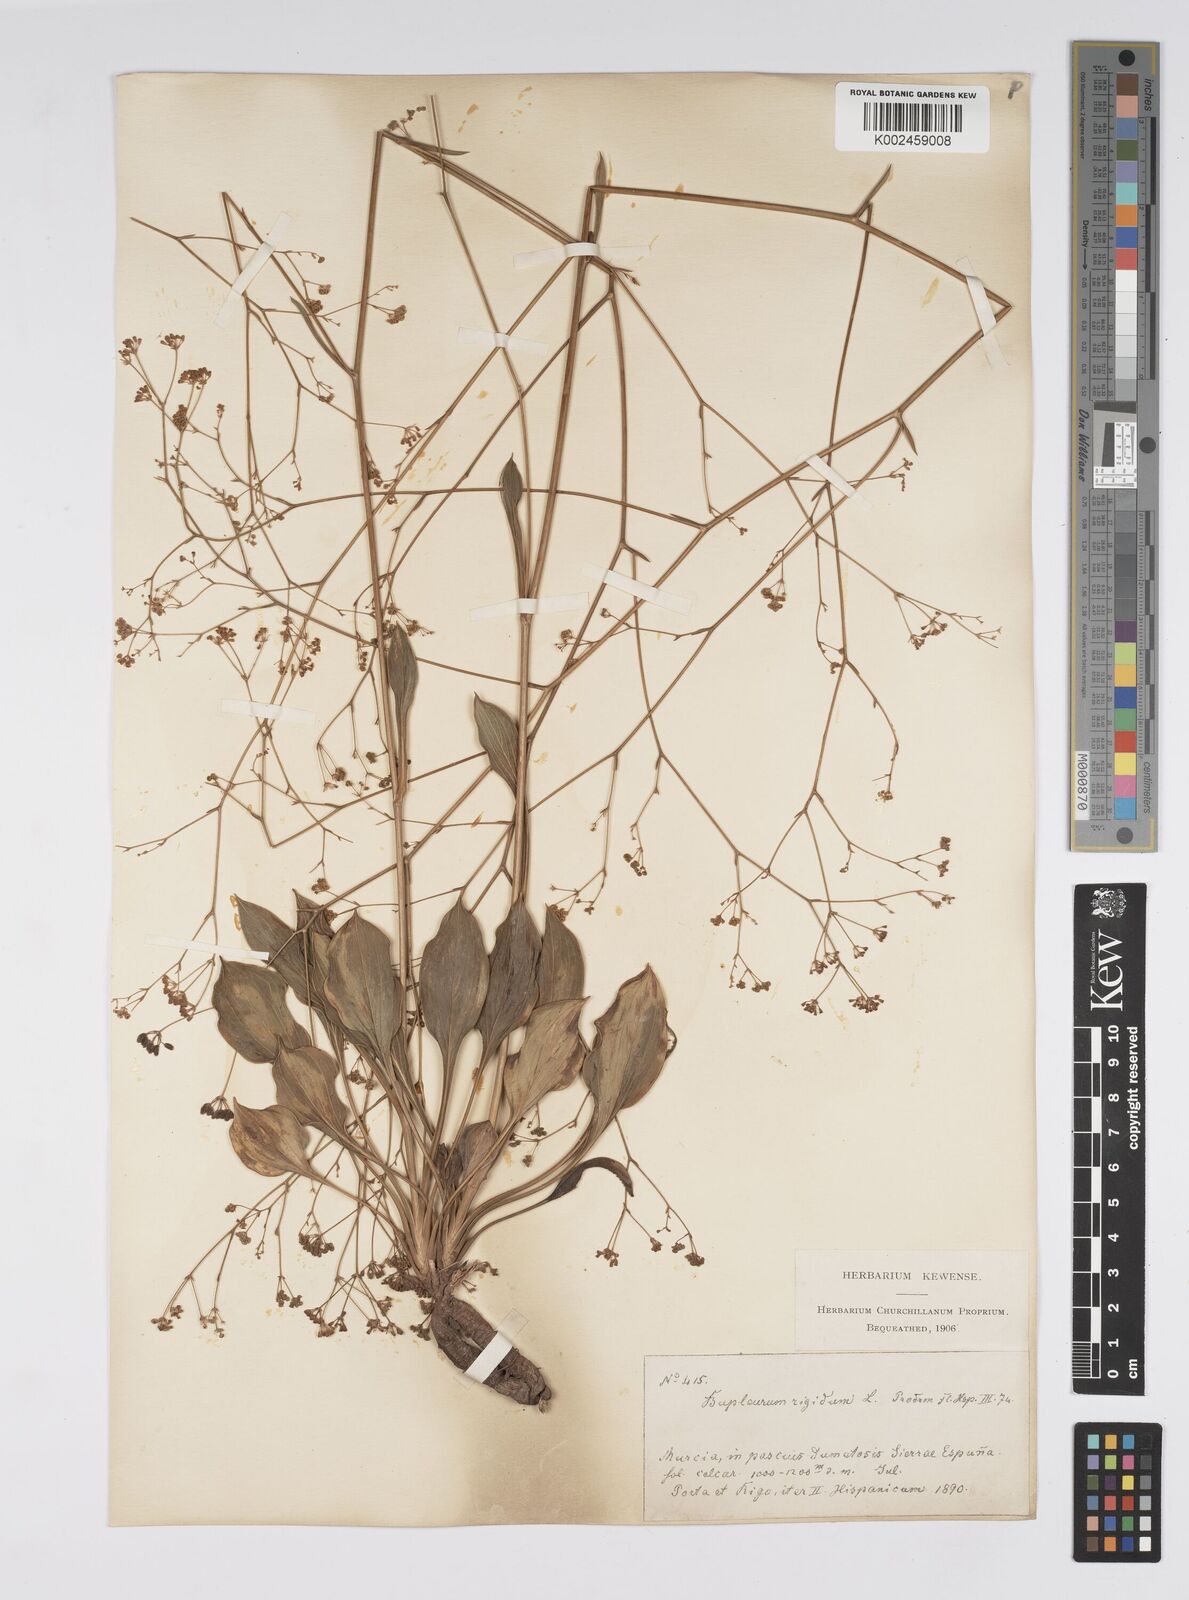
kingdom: Plantae
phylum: Tracheophyta
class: Magnoliopsida
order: Apiales
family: Apiaceae
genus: Bupleurum
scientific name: Bupleurum rigidum
